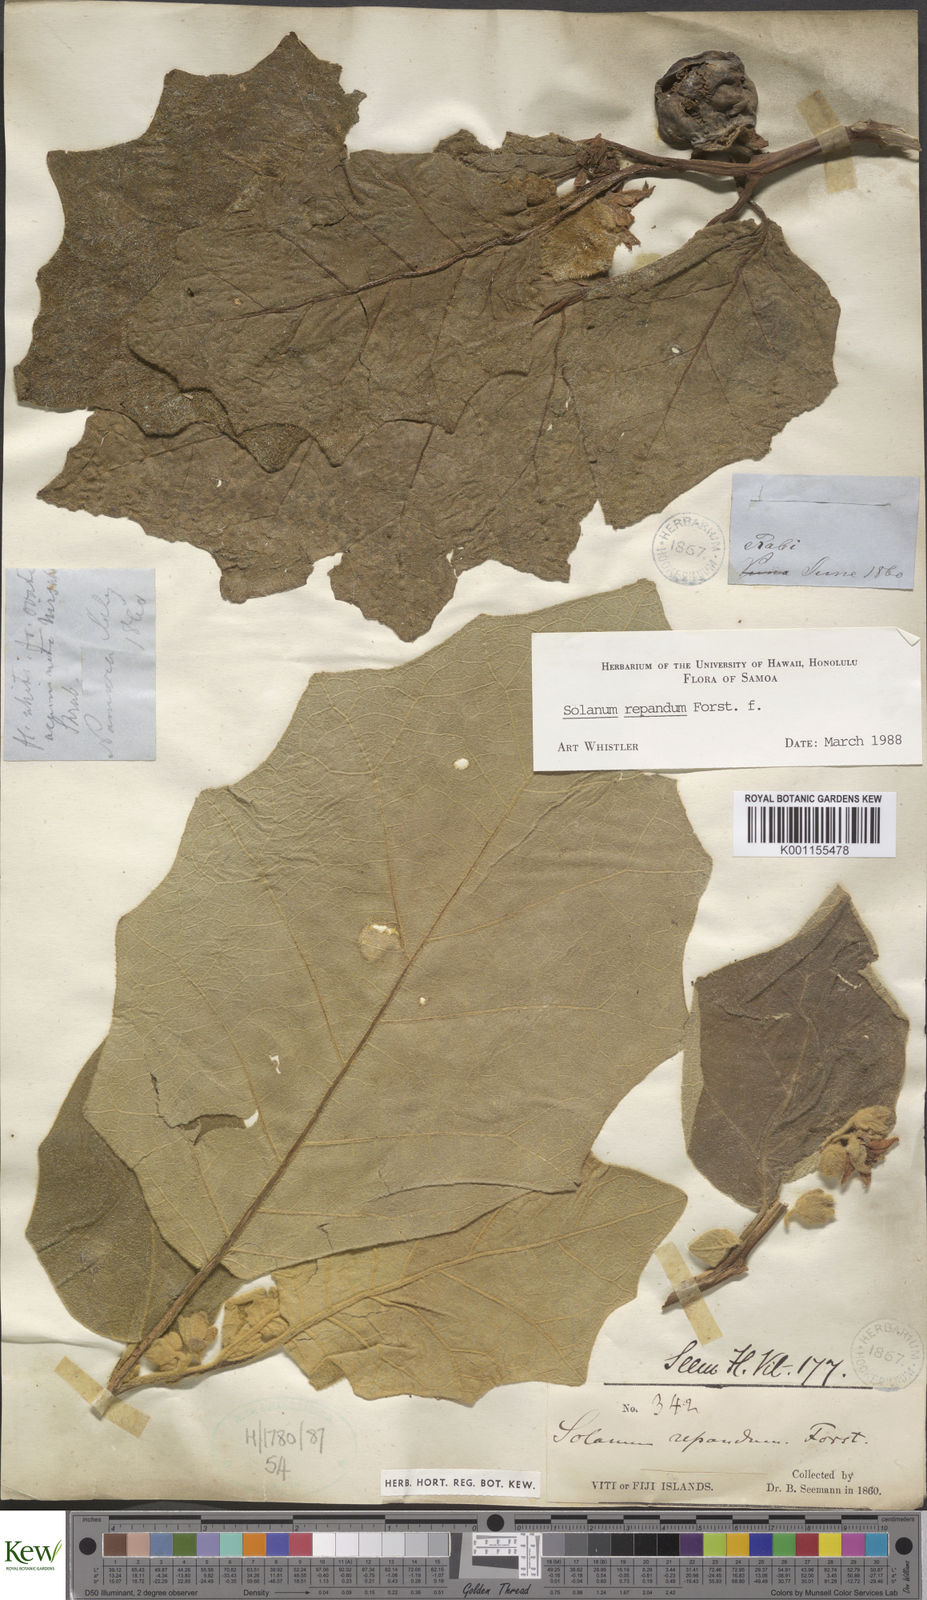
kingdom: Plantae
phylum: Tracheophyta
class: Magnoliopsida
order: Solanales
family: Solanaceae
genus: Solanum
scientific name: Solanum repandum
